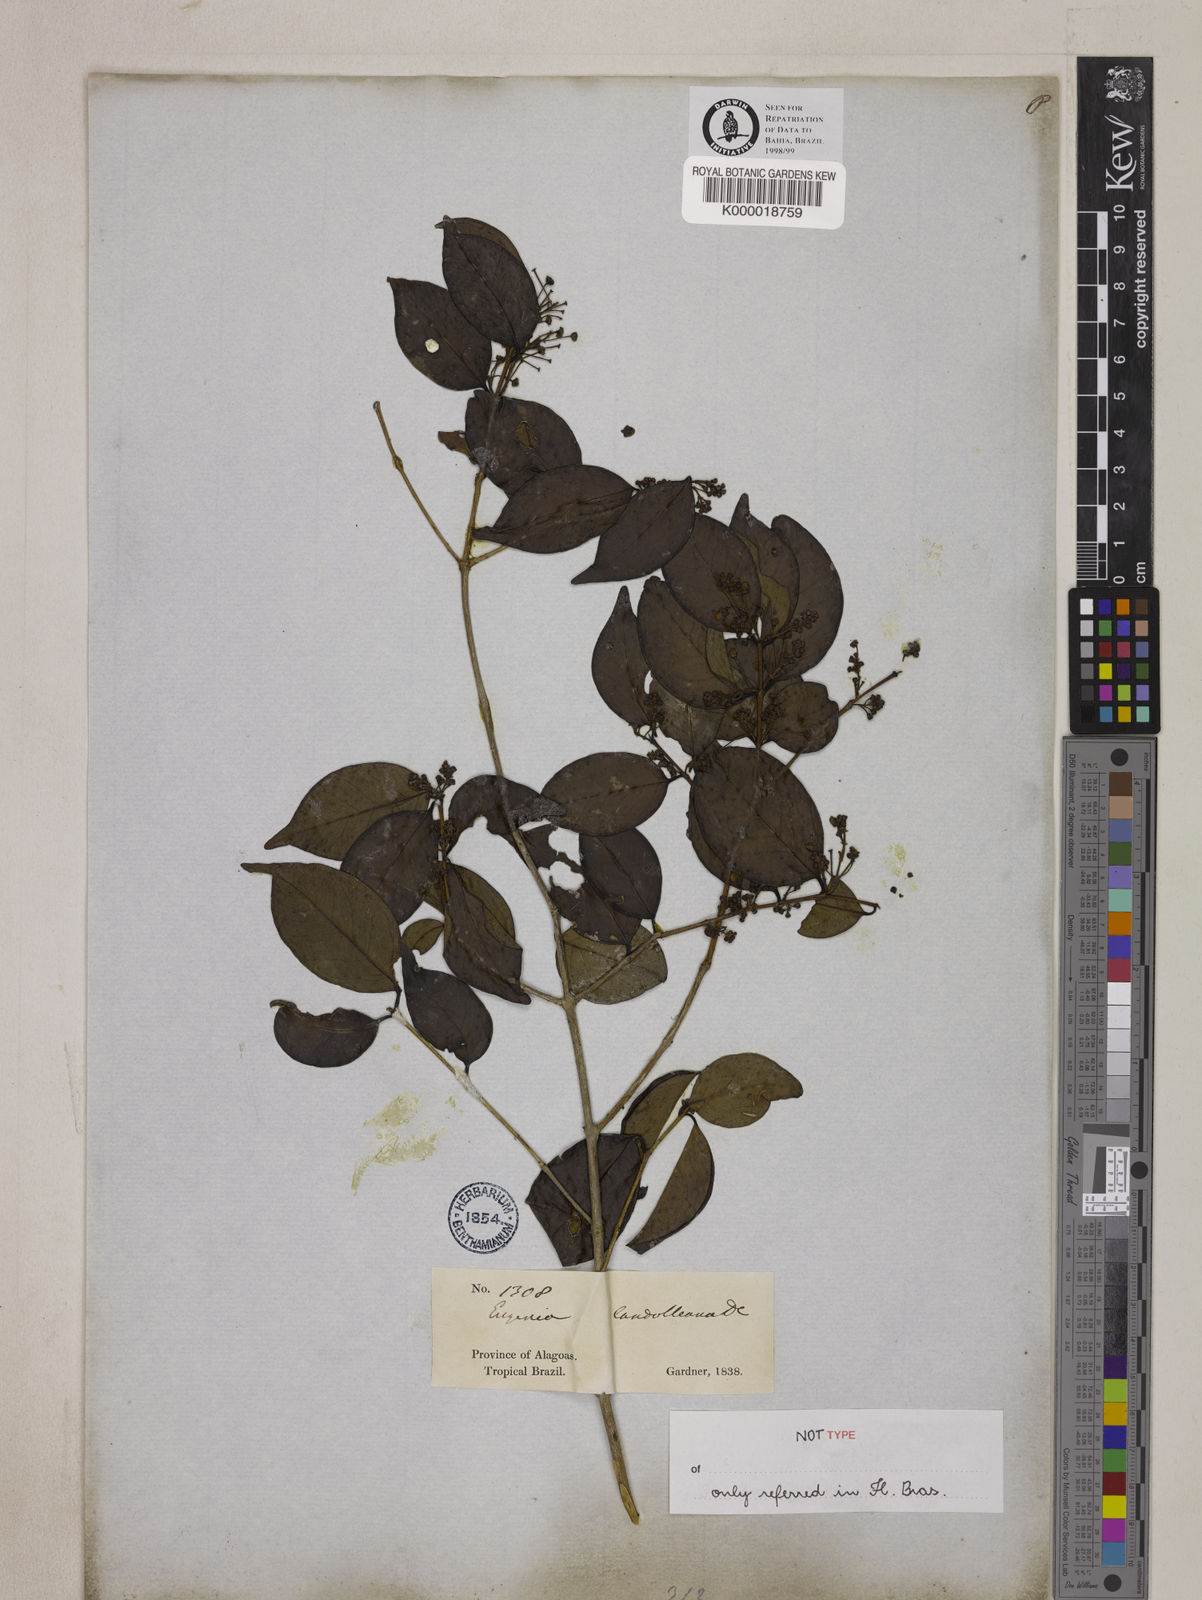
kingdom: Plantae
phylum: Tracheophyta
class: Magnoliopsida
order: Myrtales
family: Myrtaceae
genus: Eugenia
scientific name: Eugenia candolleana
